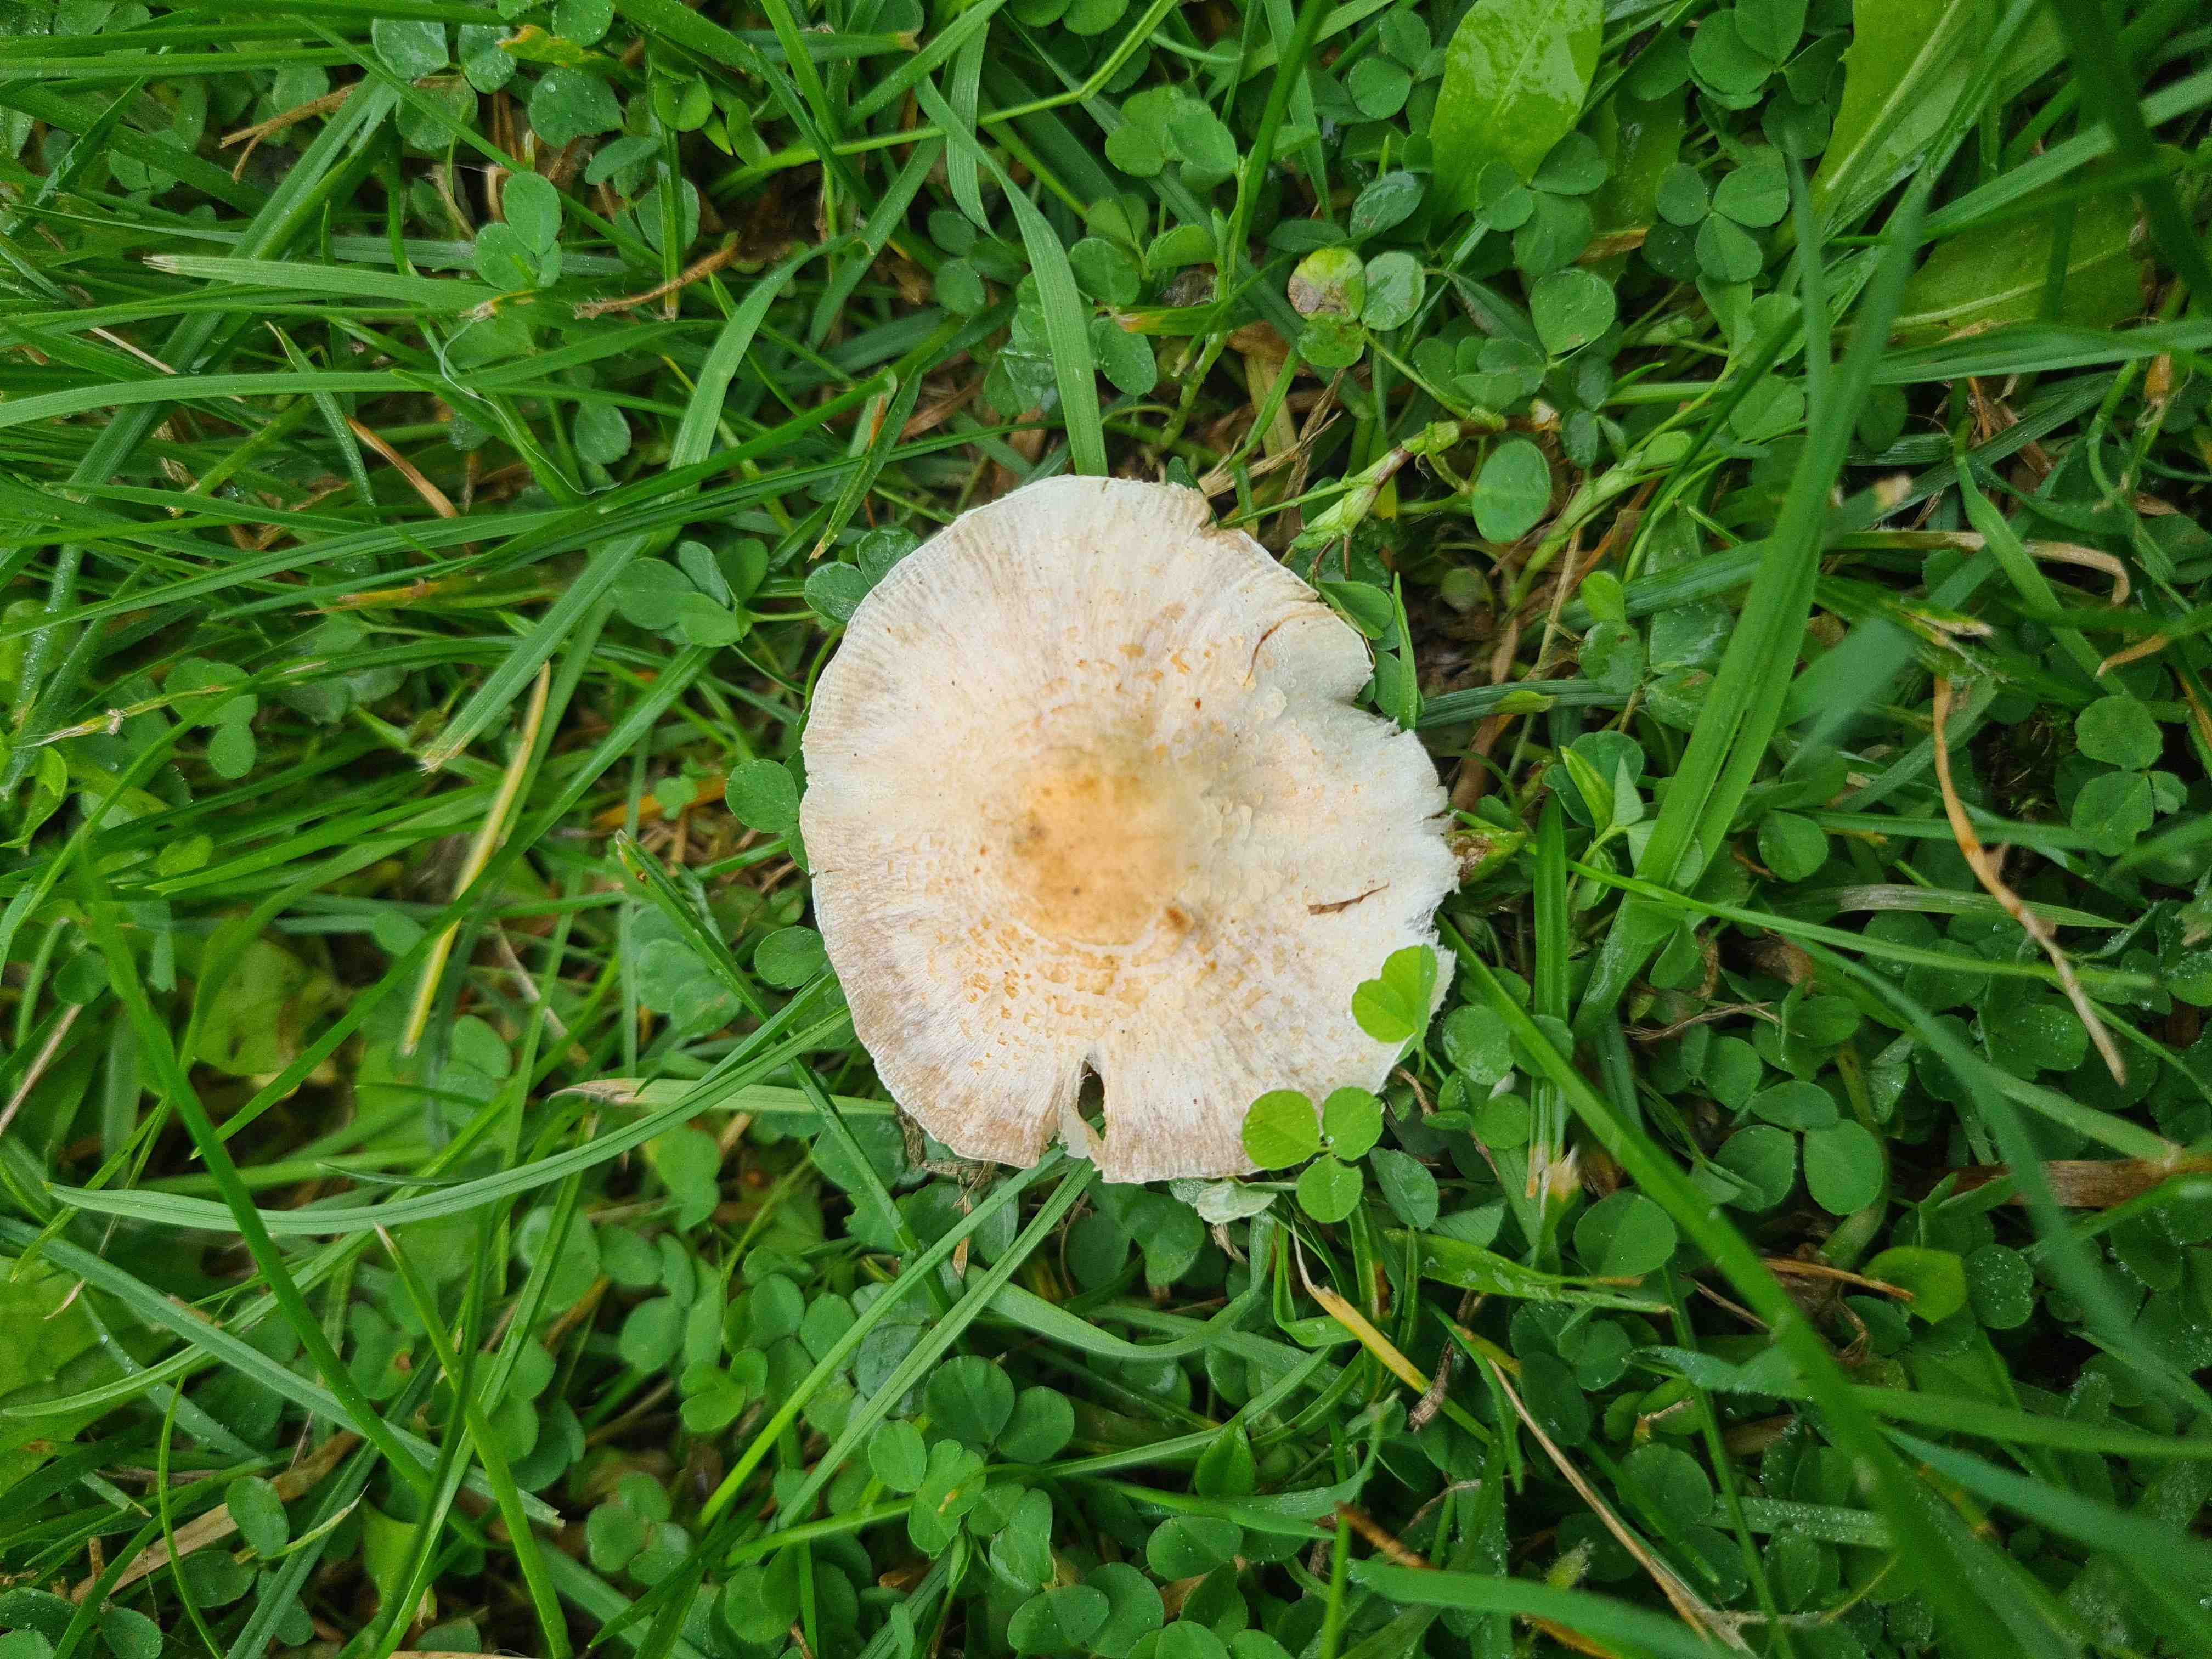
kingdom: Fungi
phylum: Basidiomycota
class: Agaricomycetes
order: Agaricales
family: Agaricaceae
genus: Lepiota
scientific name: Lepiota cristata
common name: stinkende parasolhat
